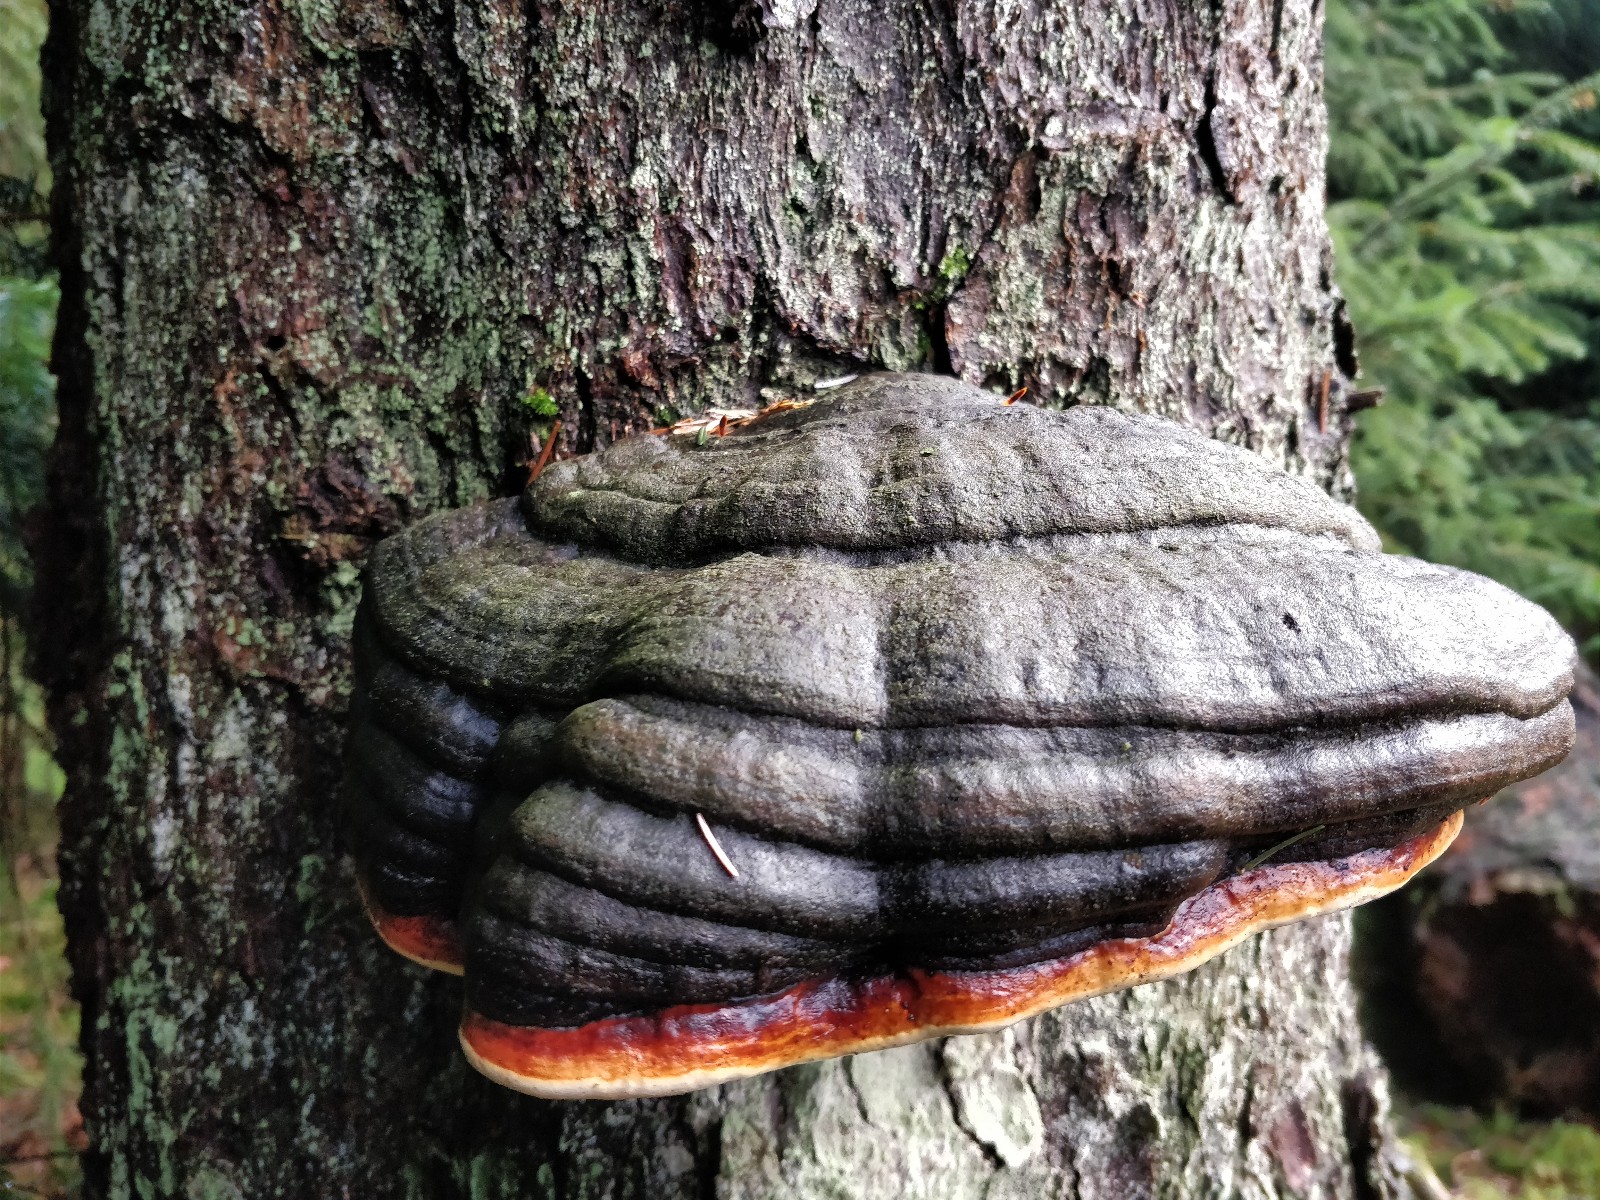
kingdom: Fungi
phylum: Basidiomycota
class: Agaricomycetes
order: Polyporales
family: Fomitopsidaceae
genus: Fomitopsis
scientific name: Fomitopsis pinicola
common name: randbæltet hovporesvamp
